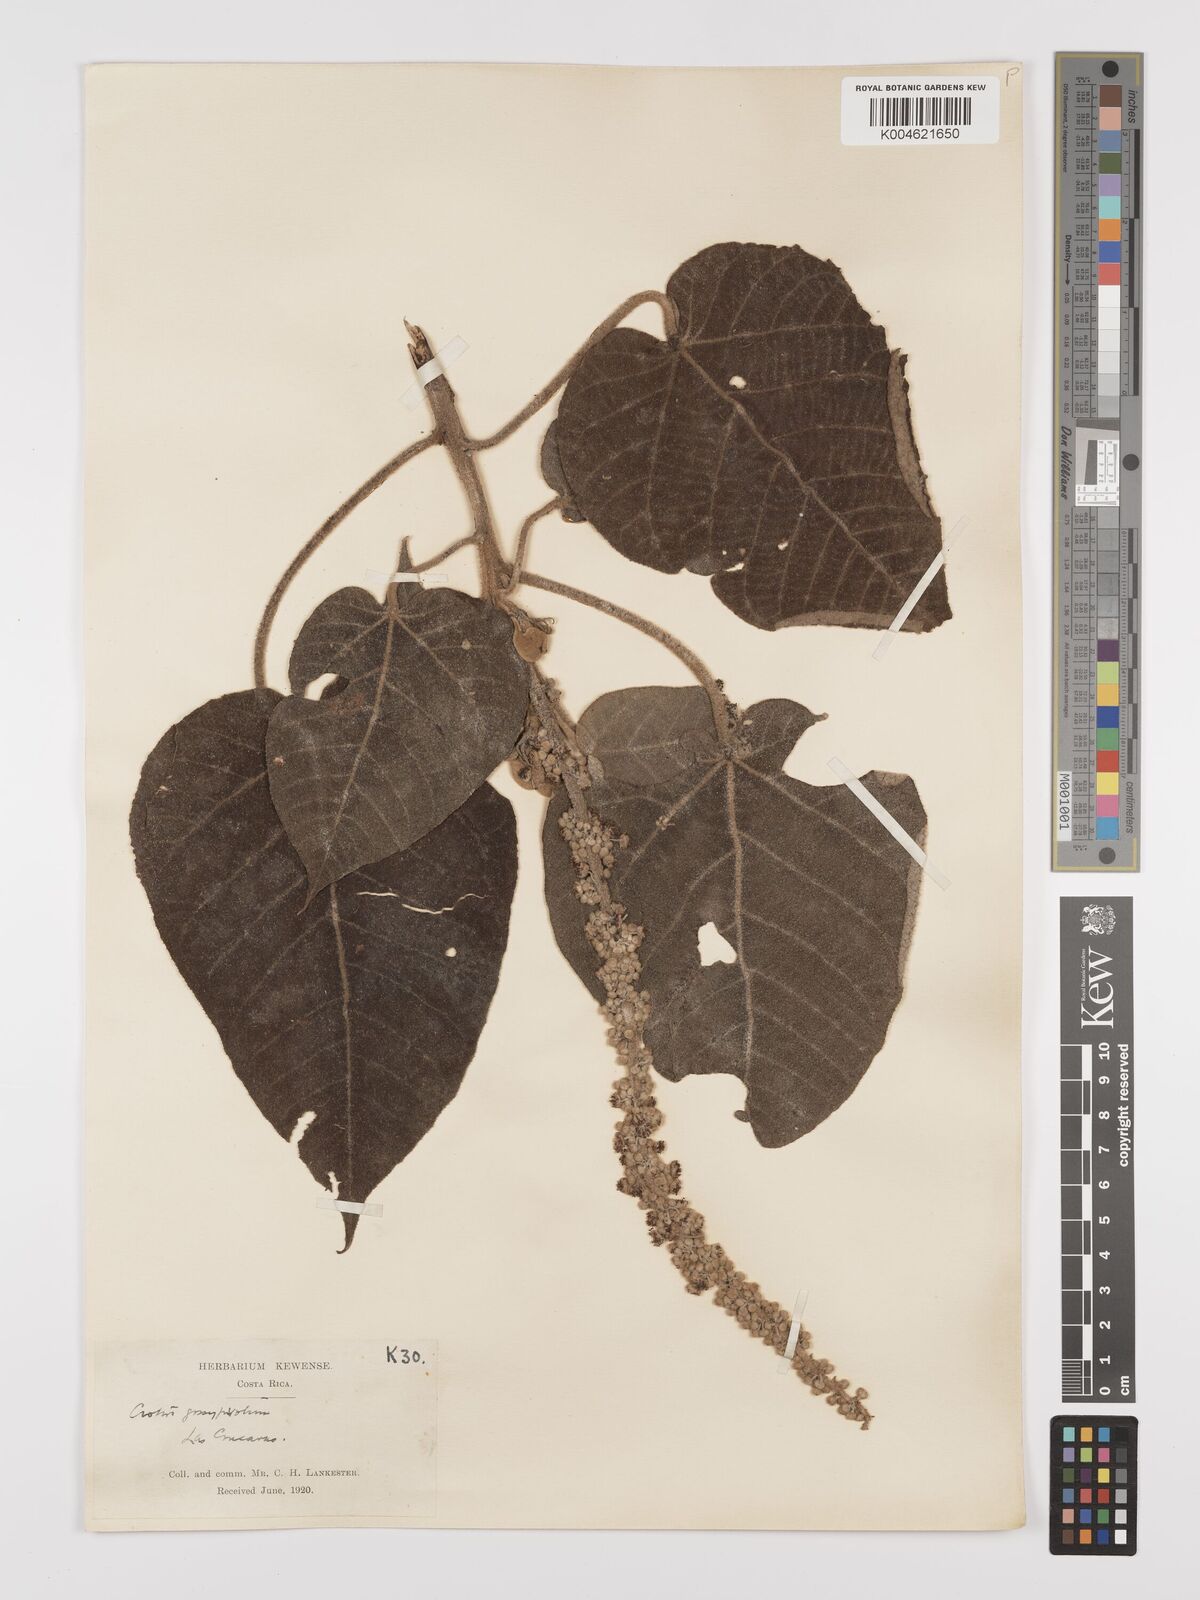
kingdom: Plantae
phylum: Tracheophyta
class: Magnoliopsida
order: Malpighiales
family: Euphorbiaceae
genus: Croton
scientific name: Croton draco
